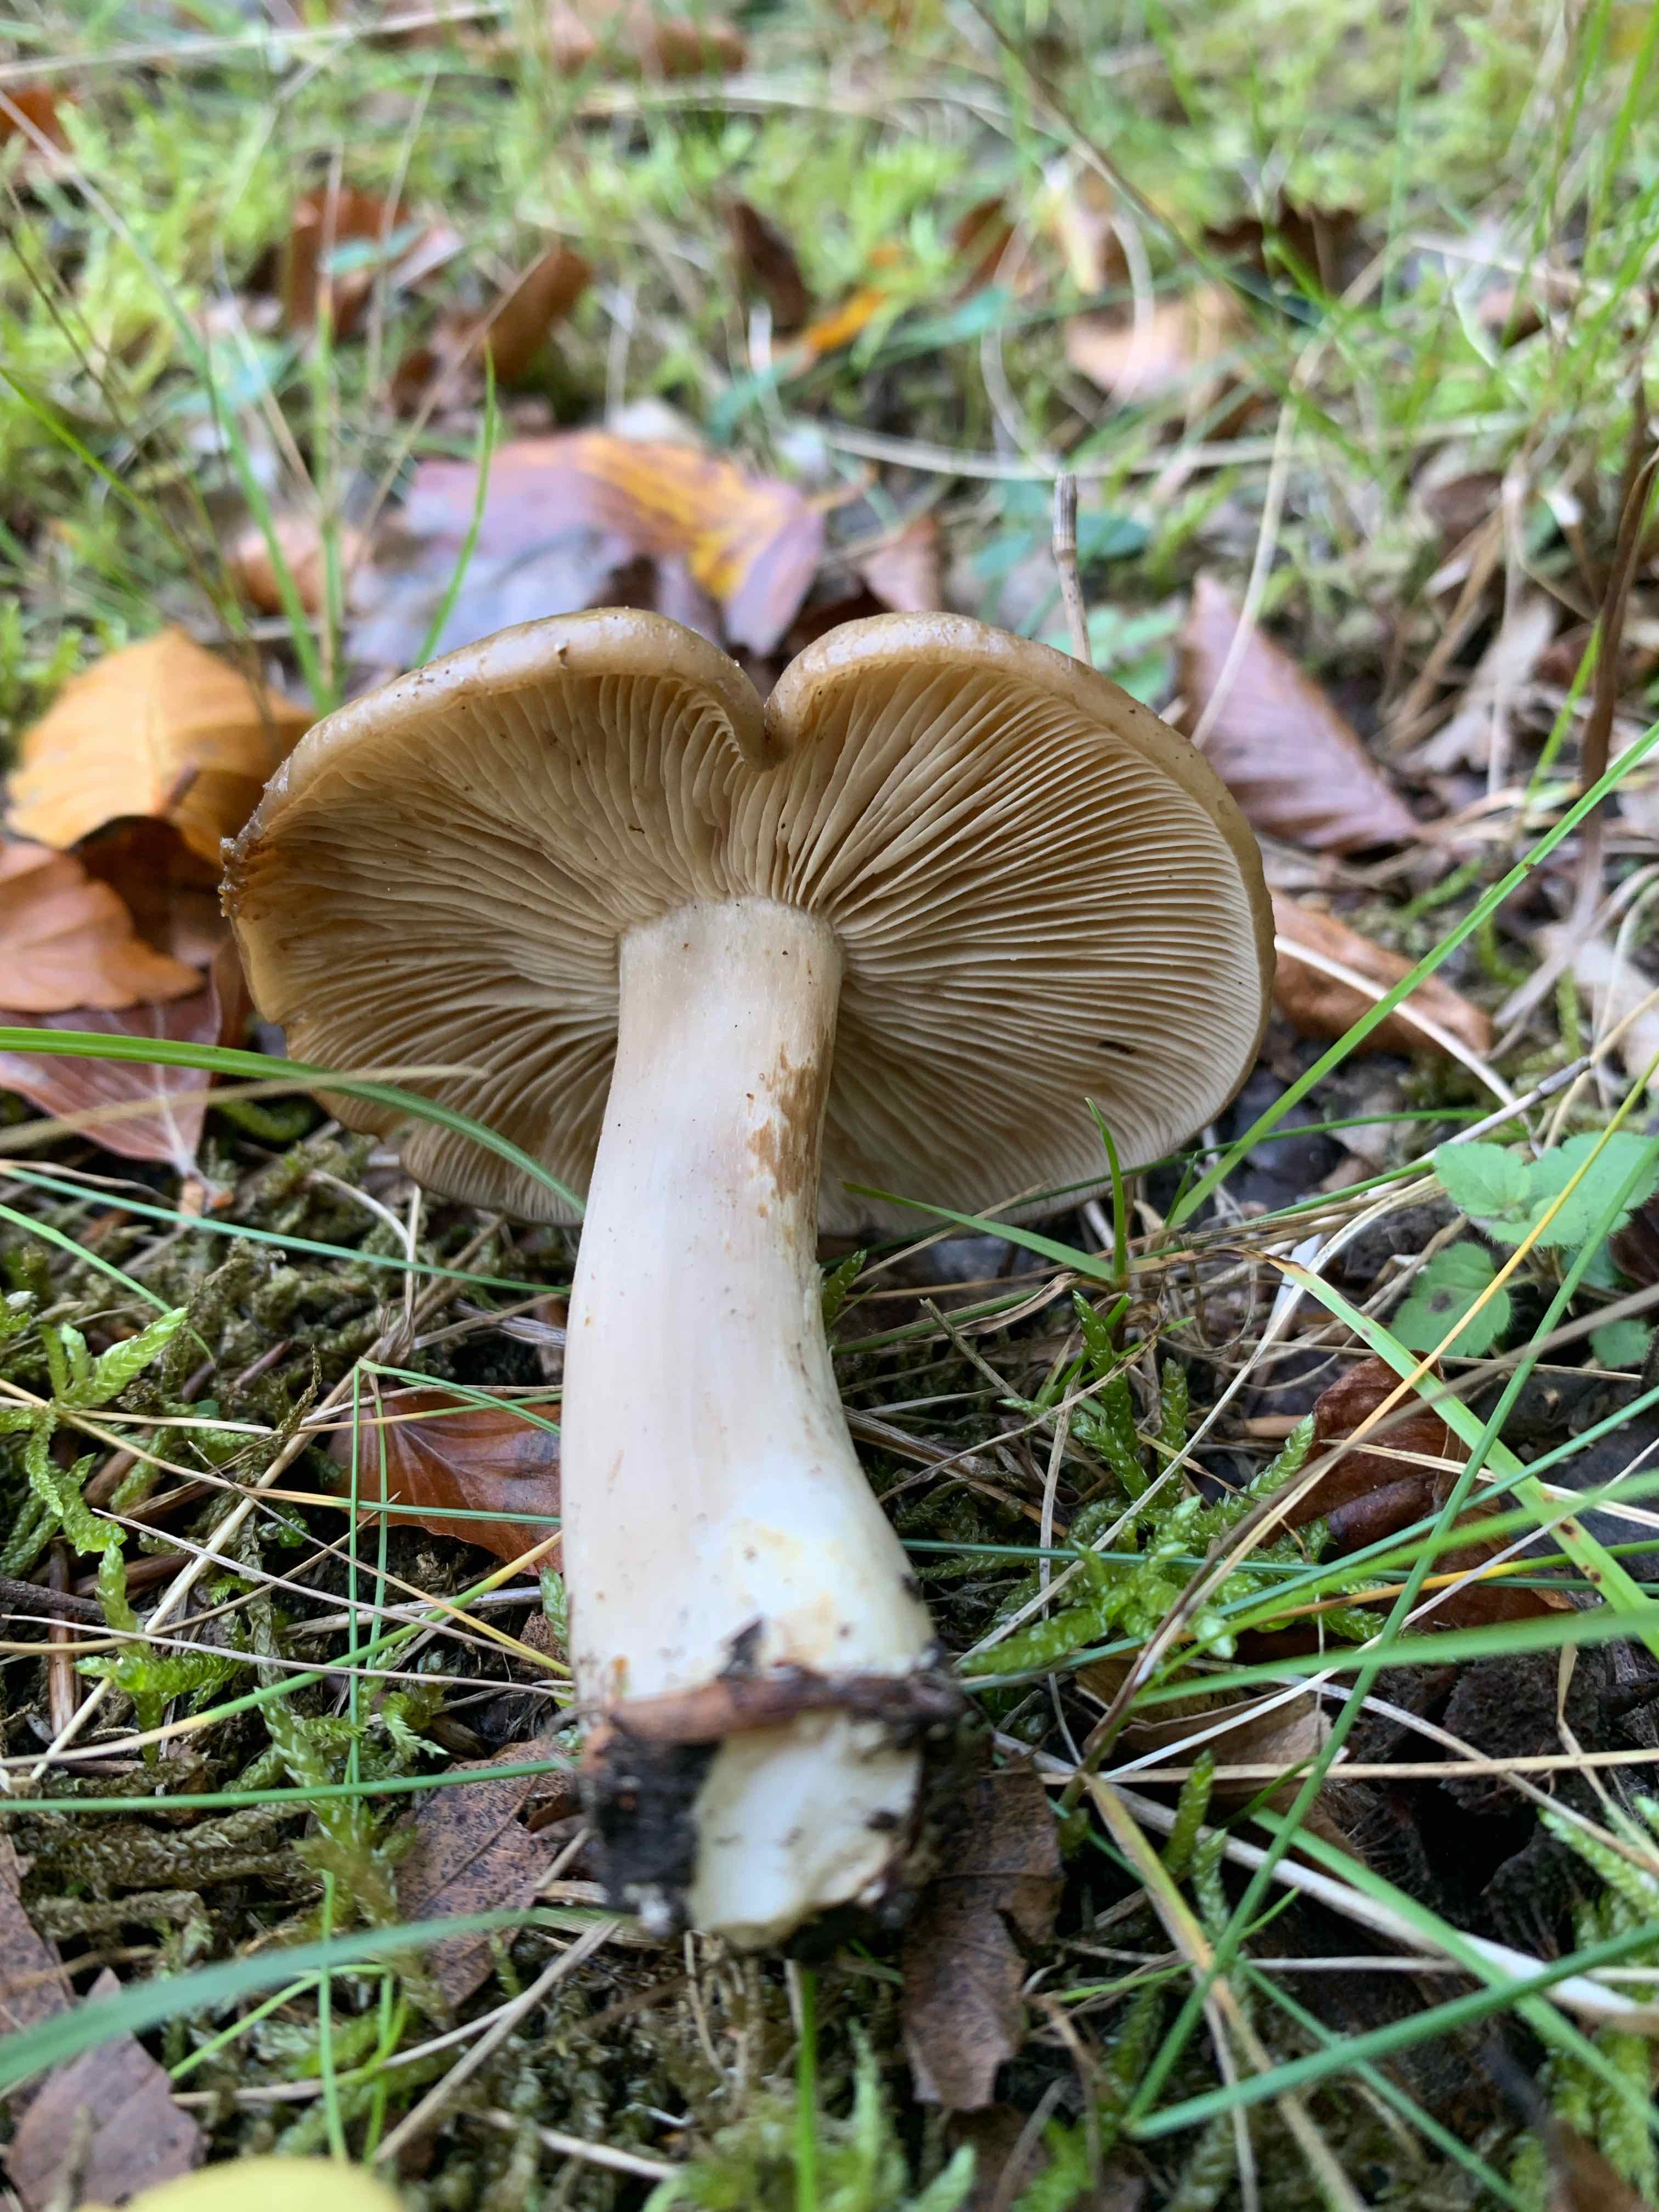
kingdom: Fungi
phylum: Basidiomycota
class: Agaricomycetes
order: Agaricales
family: Lyophyllaceae
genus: Lyophyllum
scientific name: Lyophyllum decastes
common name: røggrå gråblad
